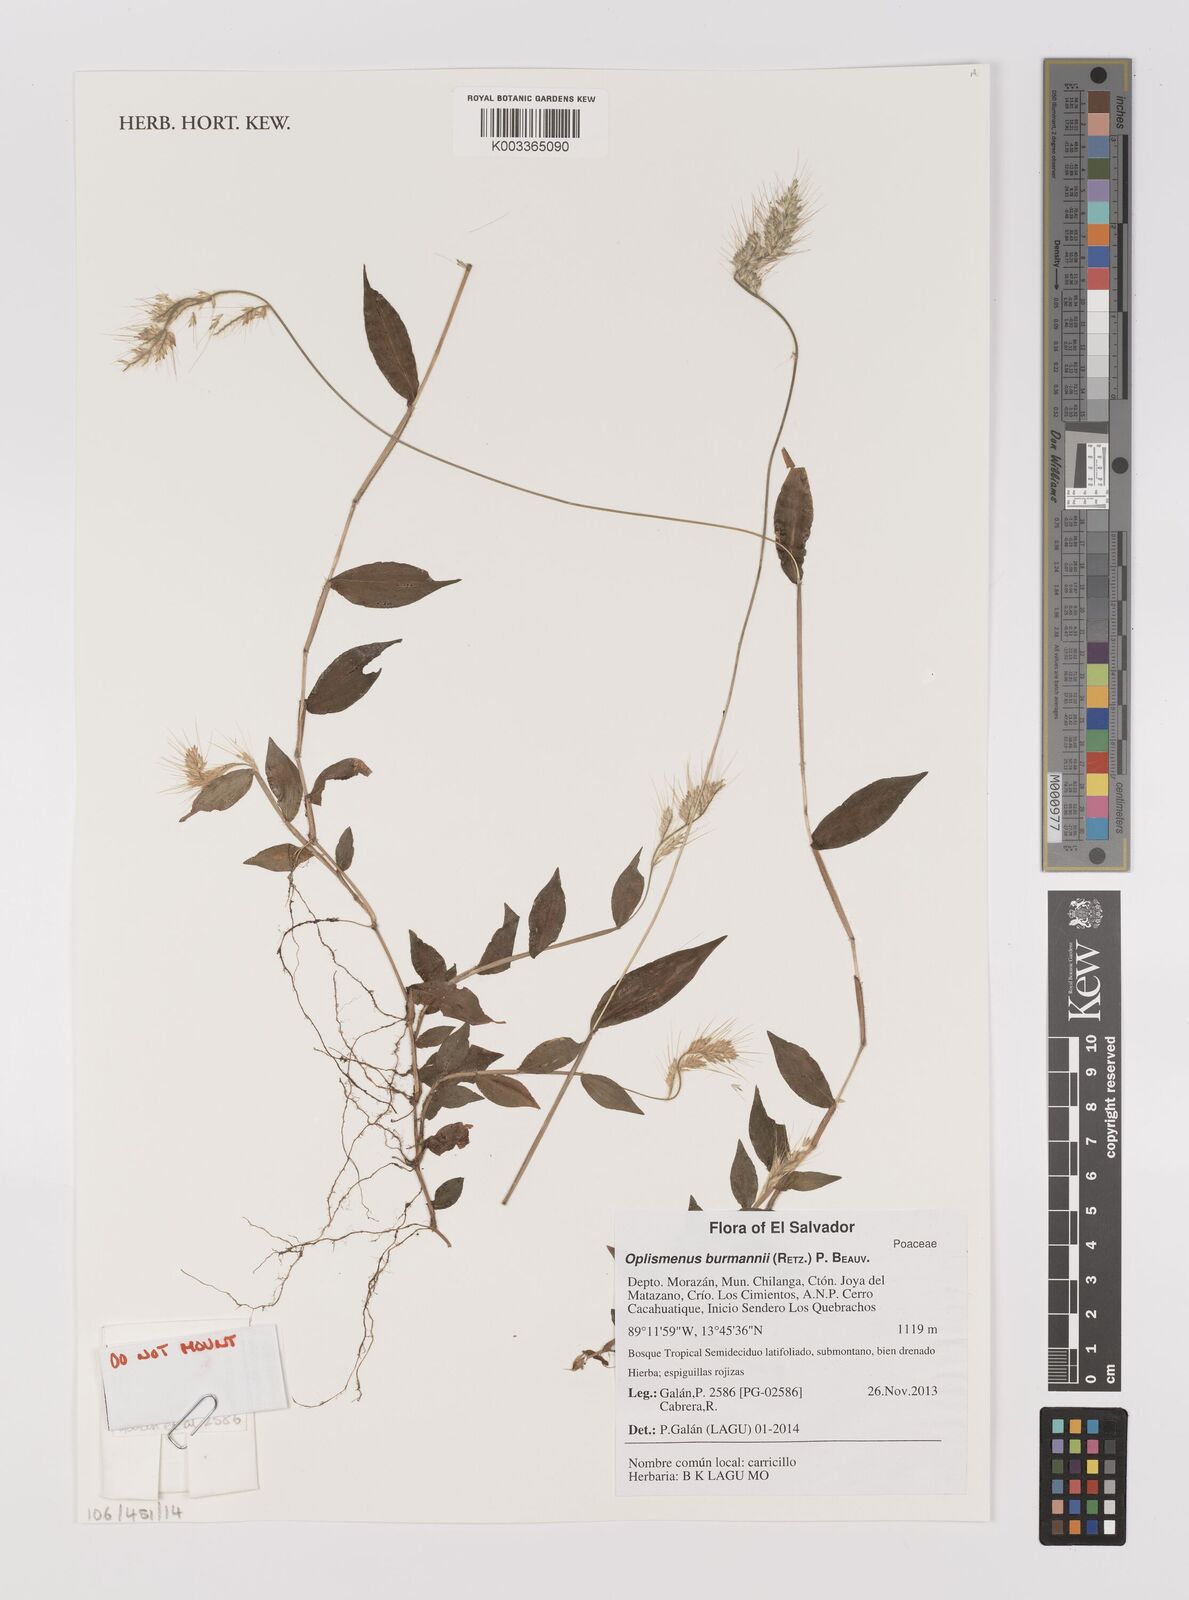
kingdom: Plantae
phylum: Tracheophyta
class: Liliopsida
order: Poales
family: Poaceae
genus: Oplismenus
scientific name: Oplismenus burmanni
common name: Burmann's basketgrass
